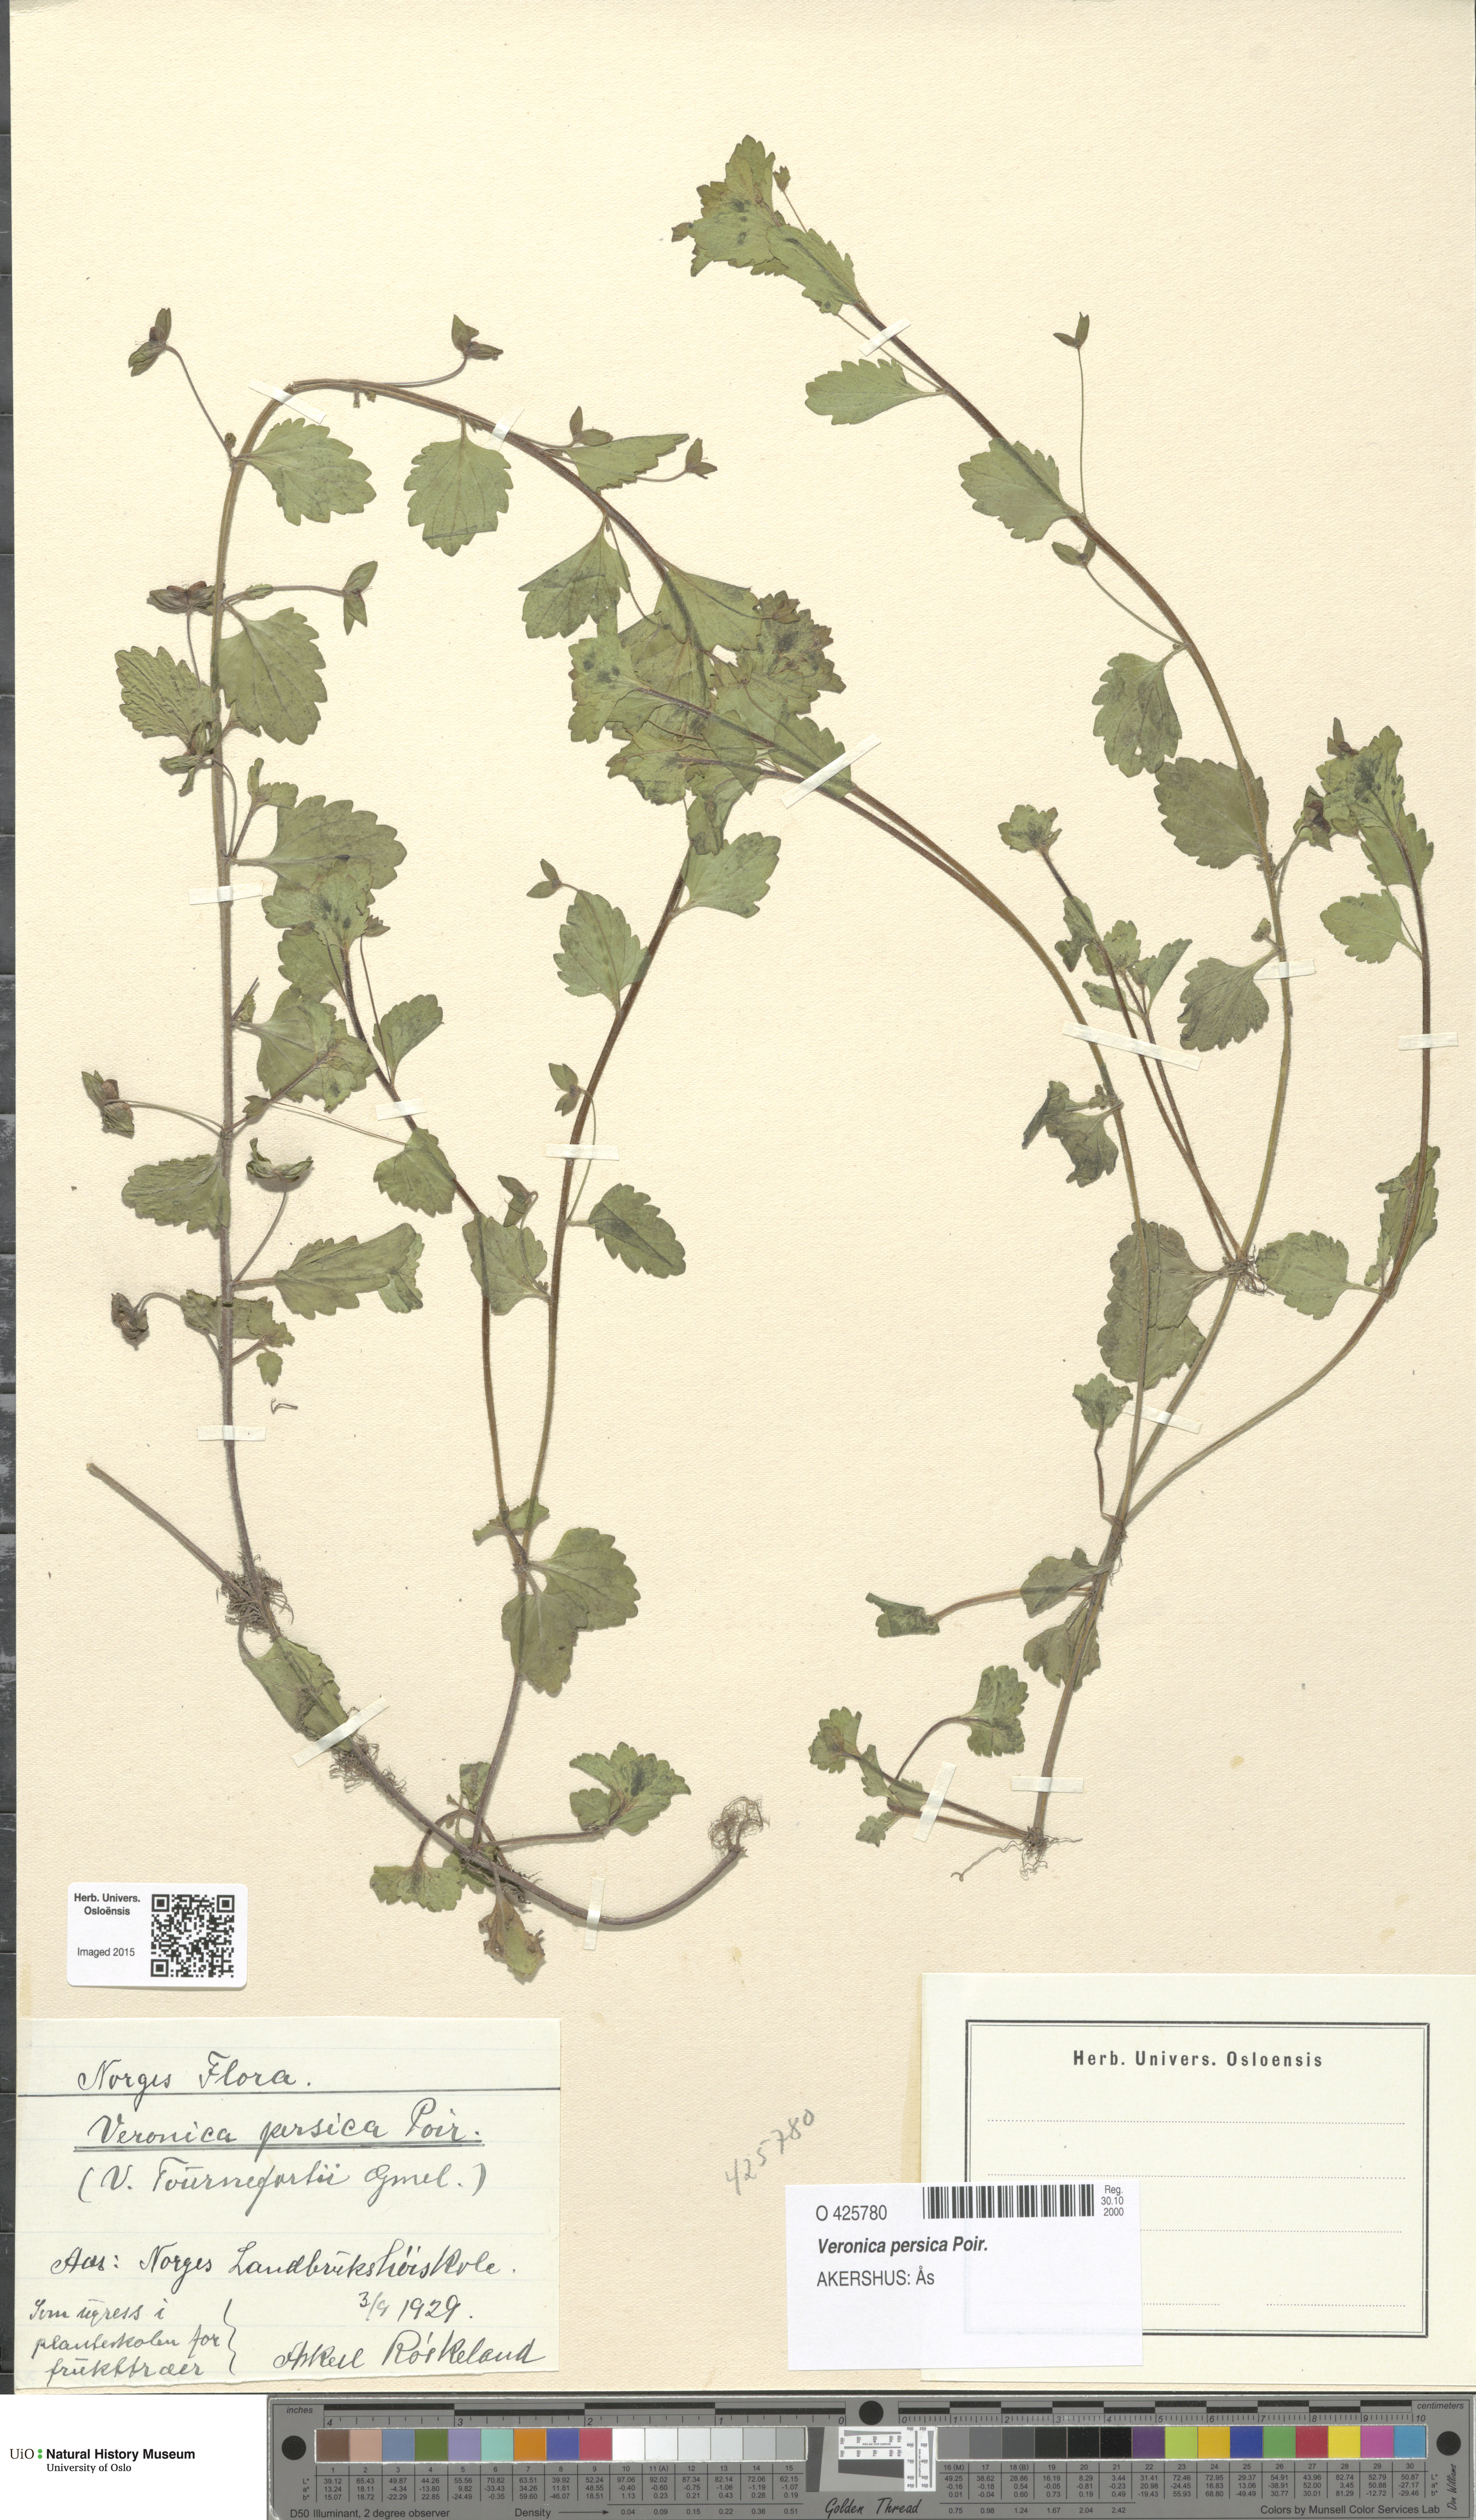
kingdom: Plantae
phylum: Tracheophyta
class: Magnoliopsida
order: Lamiales
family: Plantaginaceae
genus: Veronica
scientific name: Veronica persica
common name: Common field-speedwell
